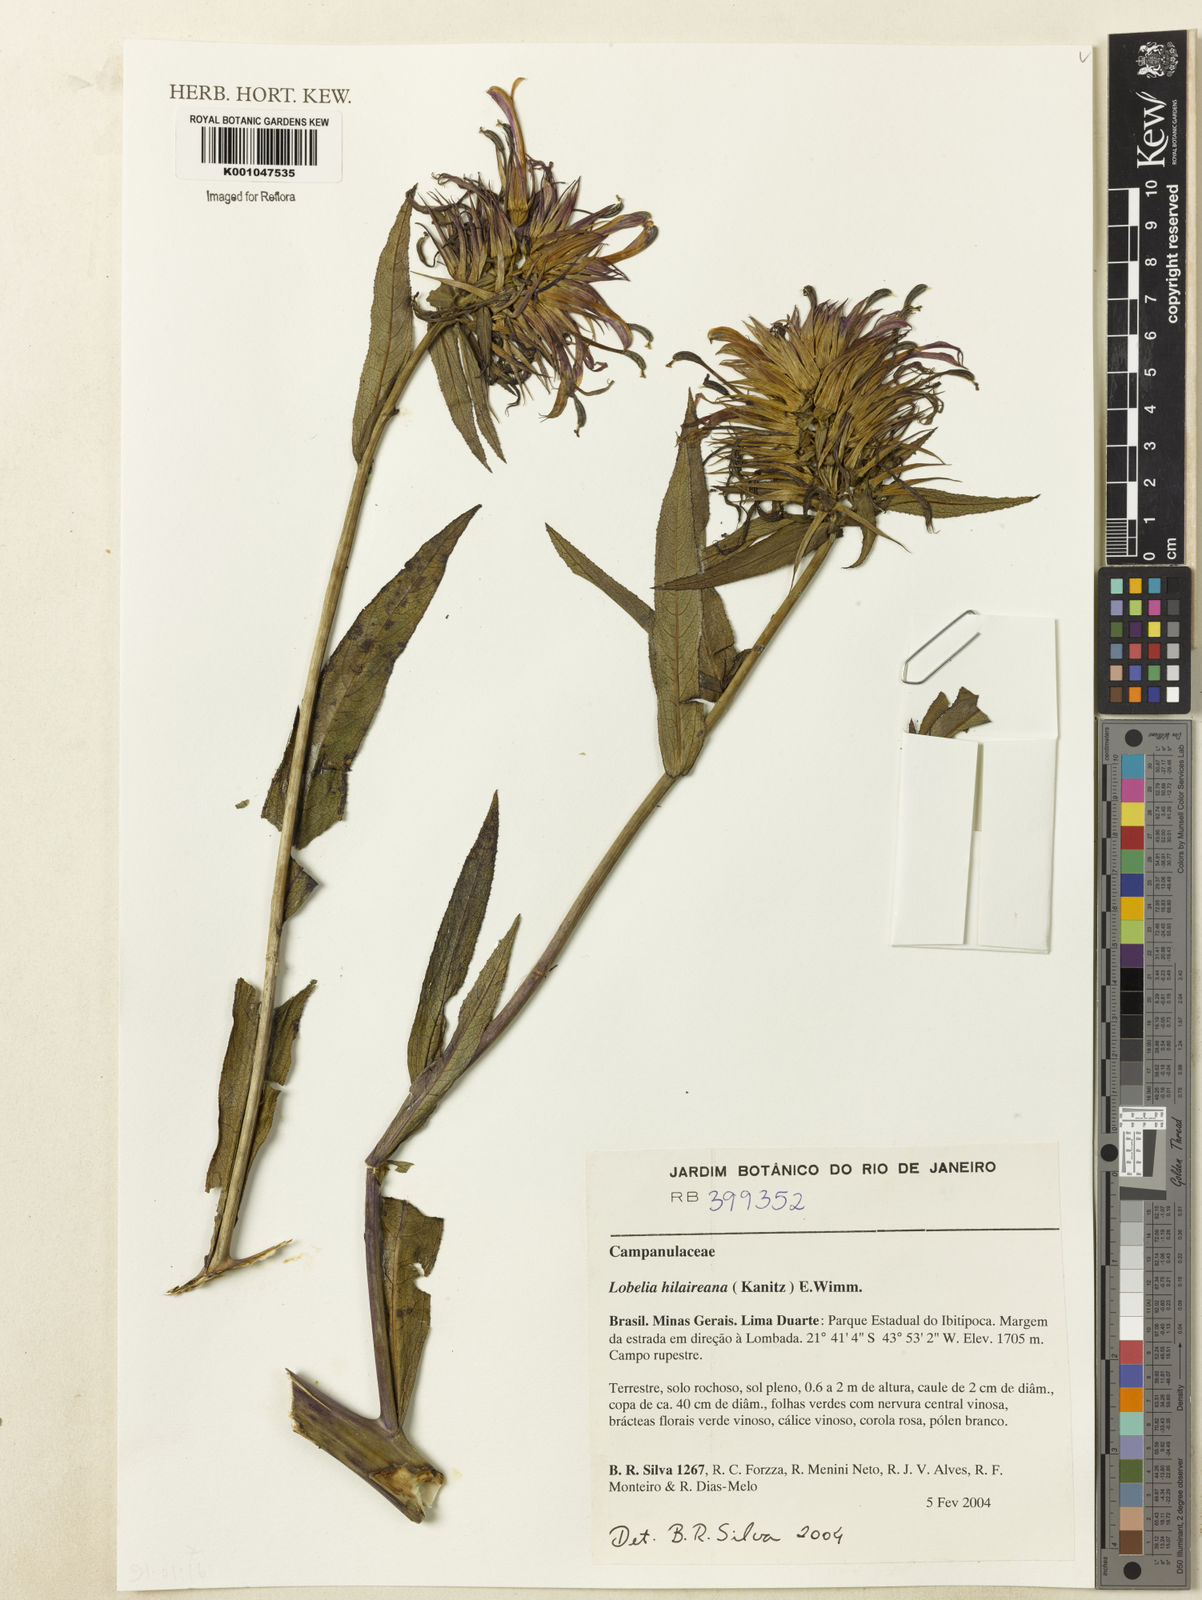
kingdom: Plantae
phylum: Tracheophyta
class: Magnoliopsida
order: Asterales
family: Campanulaceae
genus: Lobelia
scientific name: Lobelia hilaireana
